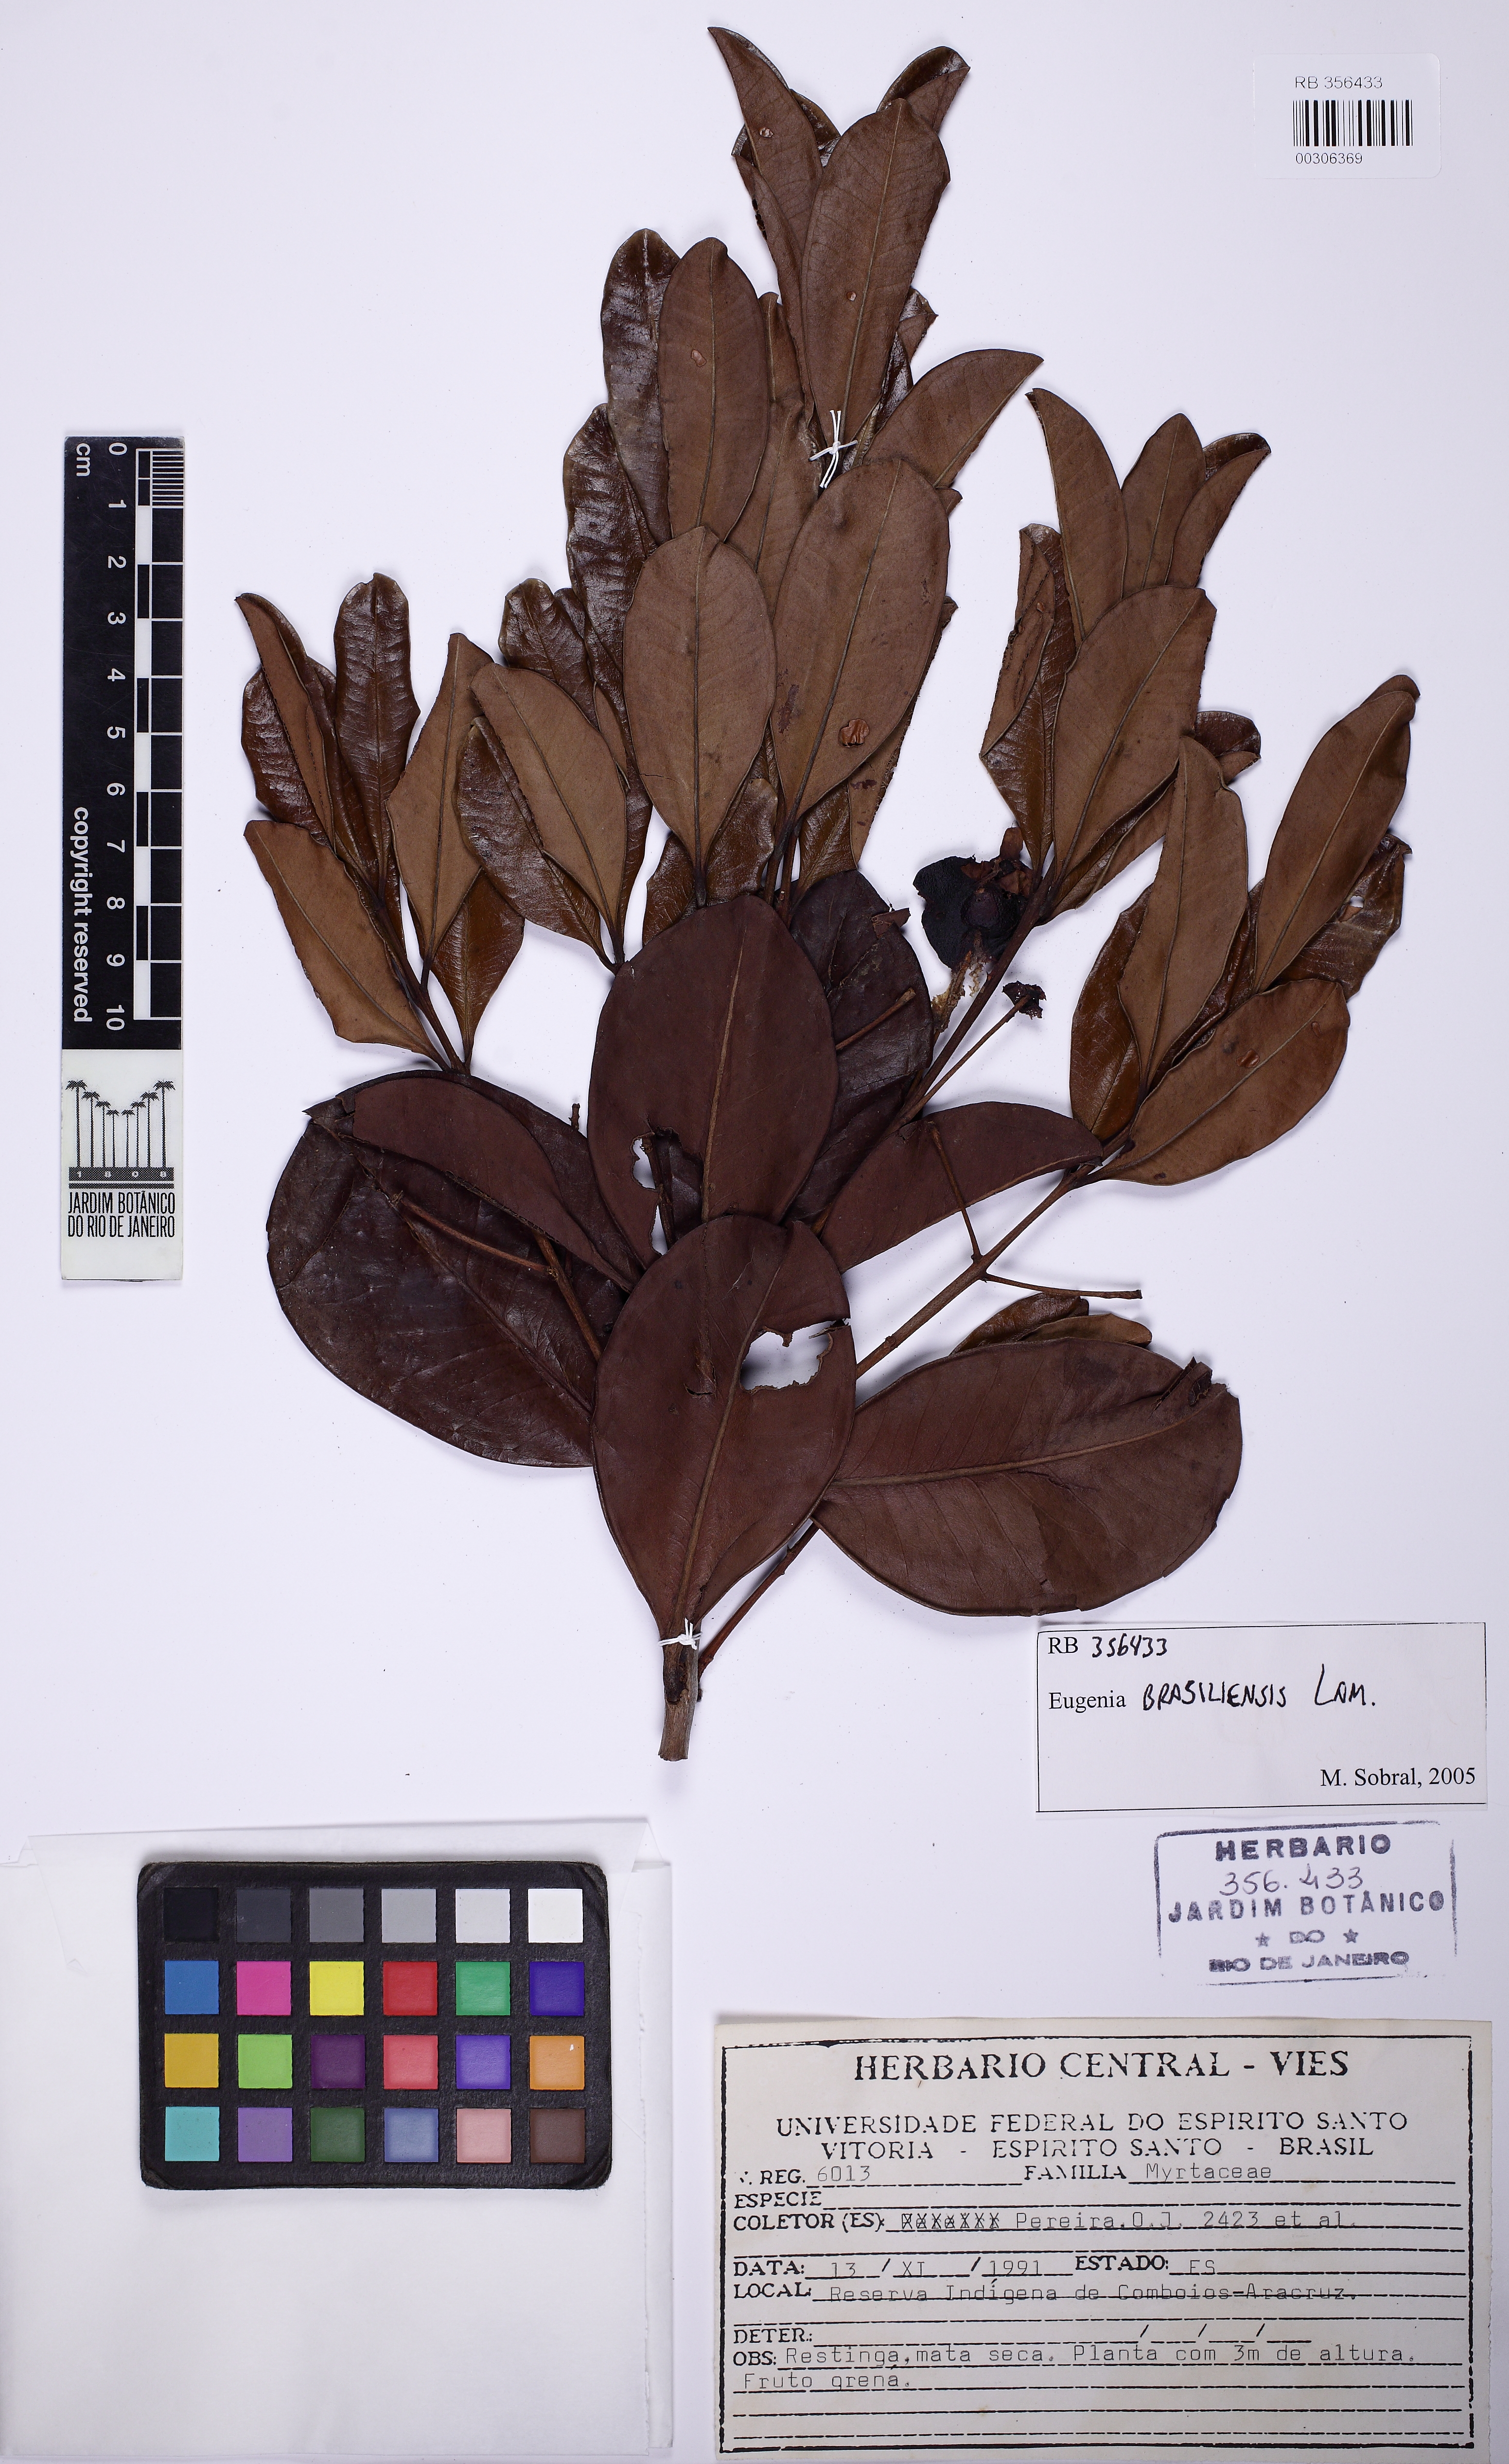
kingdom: Plantae
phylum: Tracheophyta
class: Magnoliopsida
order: Myrtales
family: Myrtaceae
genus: Eugenia
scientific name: Eugenia brasiliensis
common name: Grumichama
